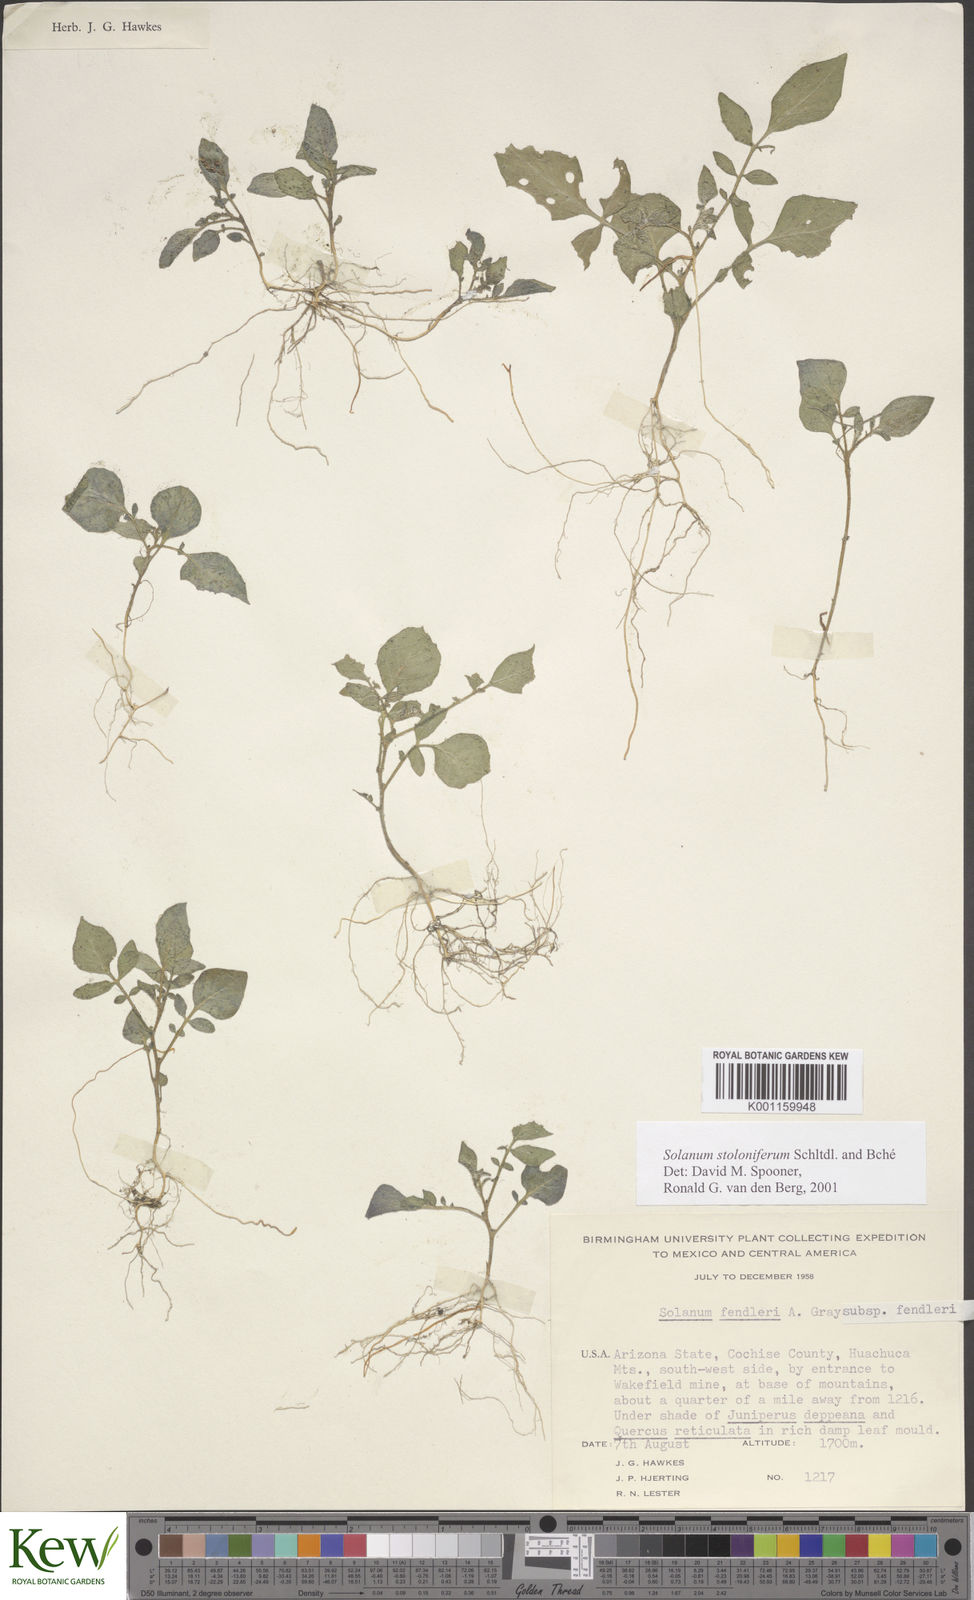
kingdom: Plantae
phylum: Tracheophyta
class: Magnoliopsida
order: Solanales
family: Solanaceae
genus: Solanum
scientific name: Solanum stoloniferum
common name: Fendler's nighshade
